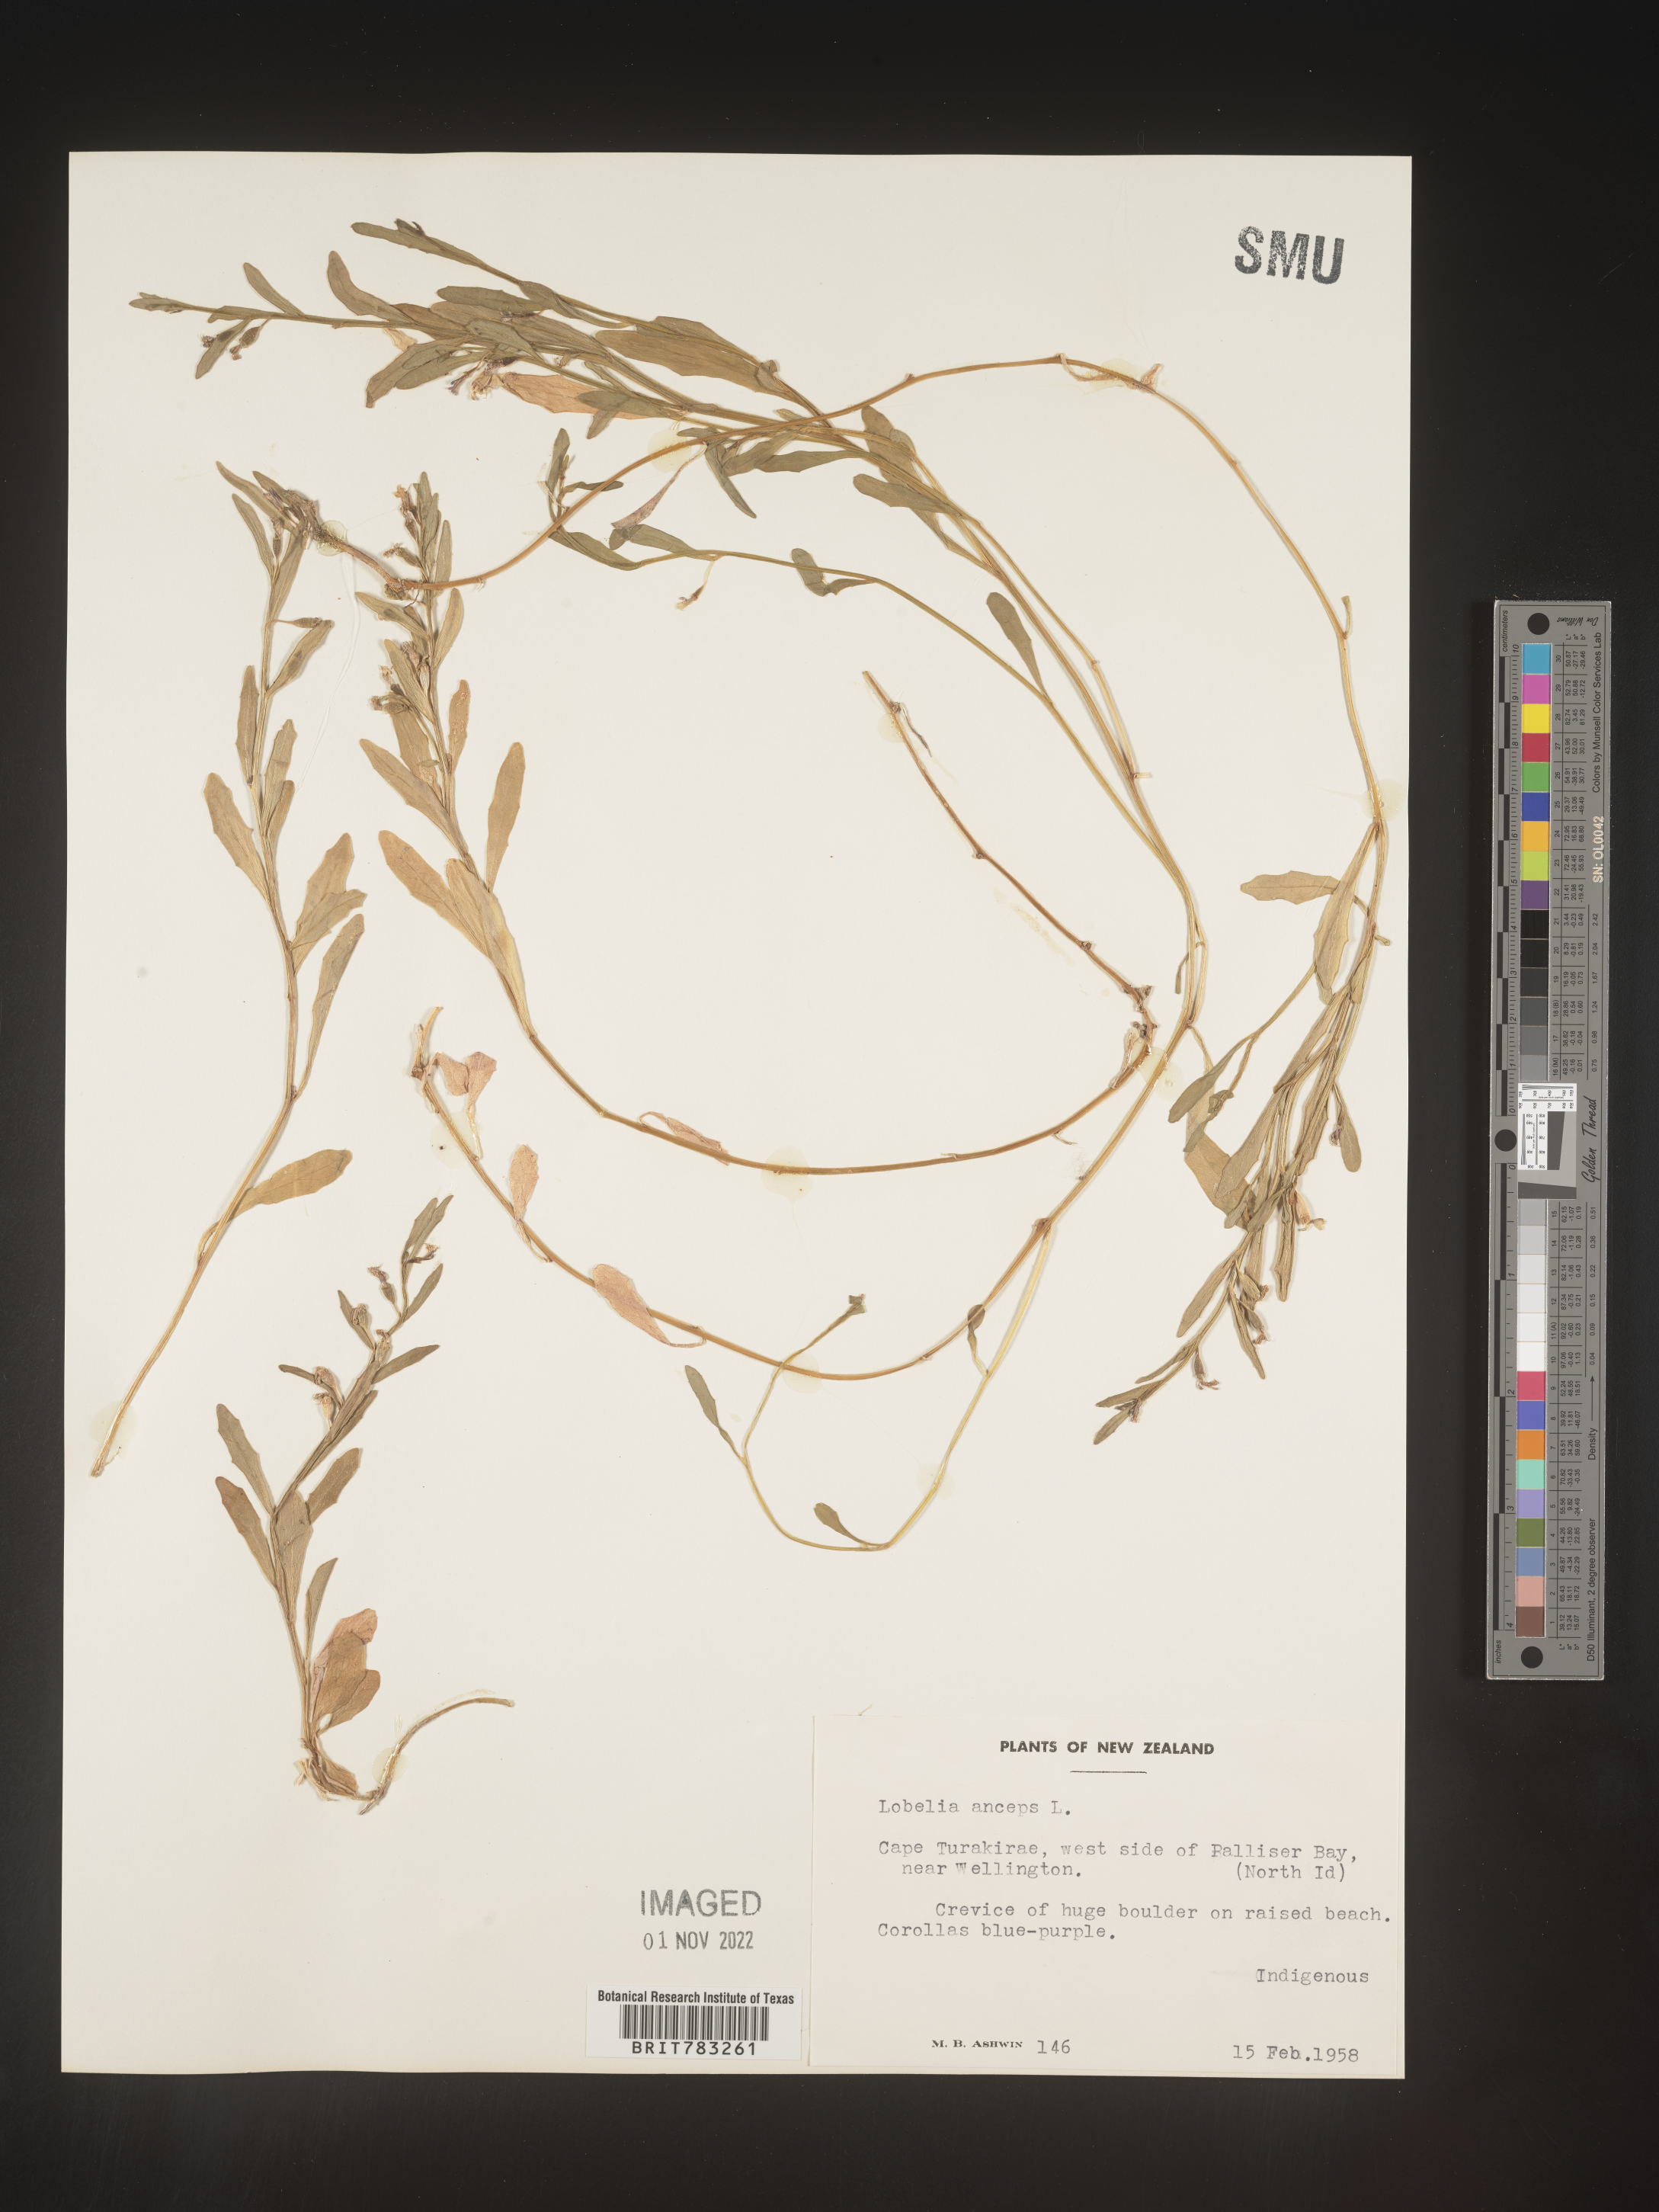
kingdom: Plantae
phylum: Tracheophyta
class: Magnoliopsida
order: Asterales
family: Campanulaceae
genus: Lobelia
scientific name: Lobelia
